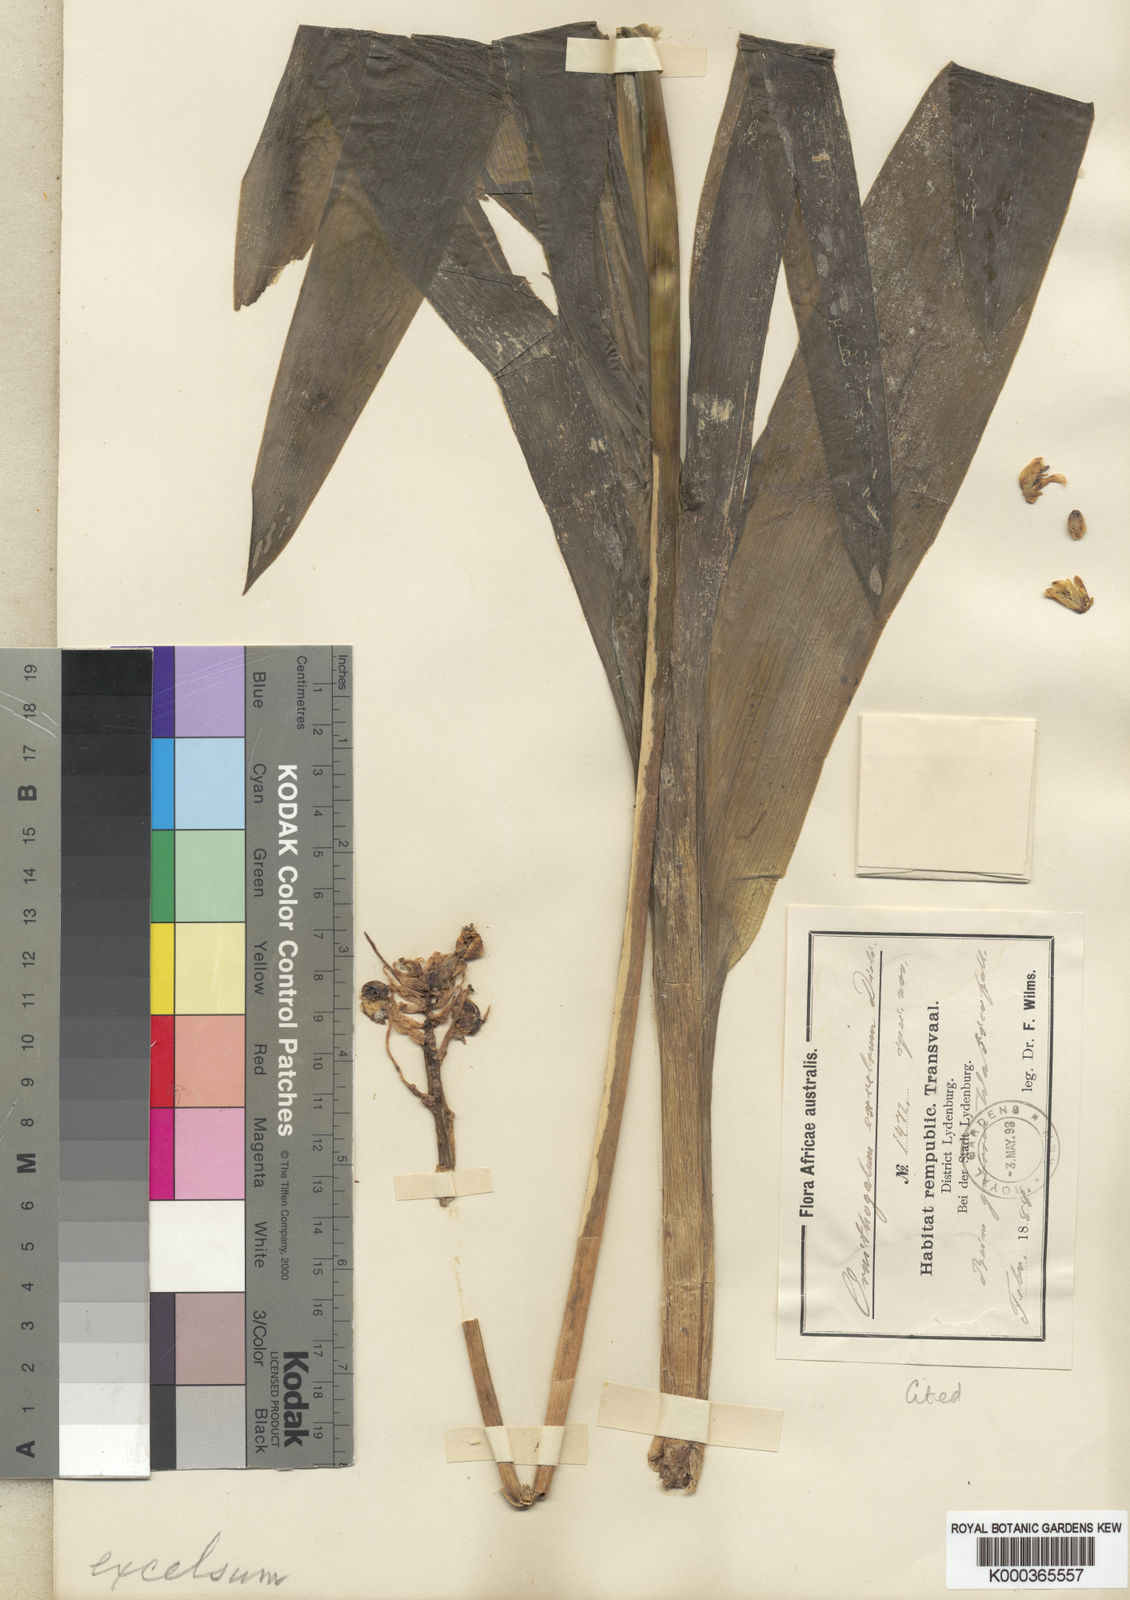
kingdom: Plantae
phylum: Tracheophyta
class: Liliopsida
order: Asparagales
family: Asparagaceae
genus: Ornithogalum
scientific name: Ornithogalum saundersiae
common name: Giant chincherinchee
